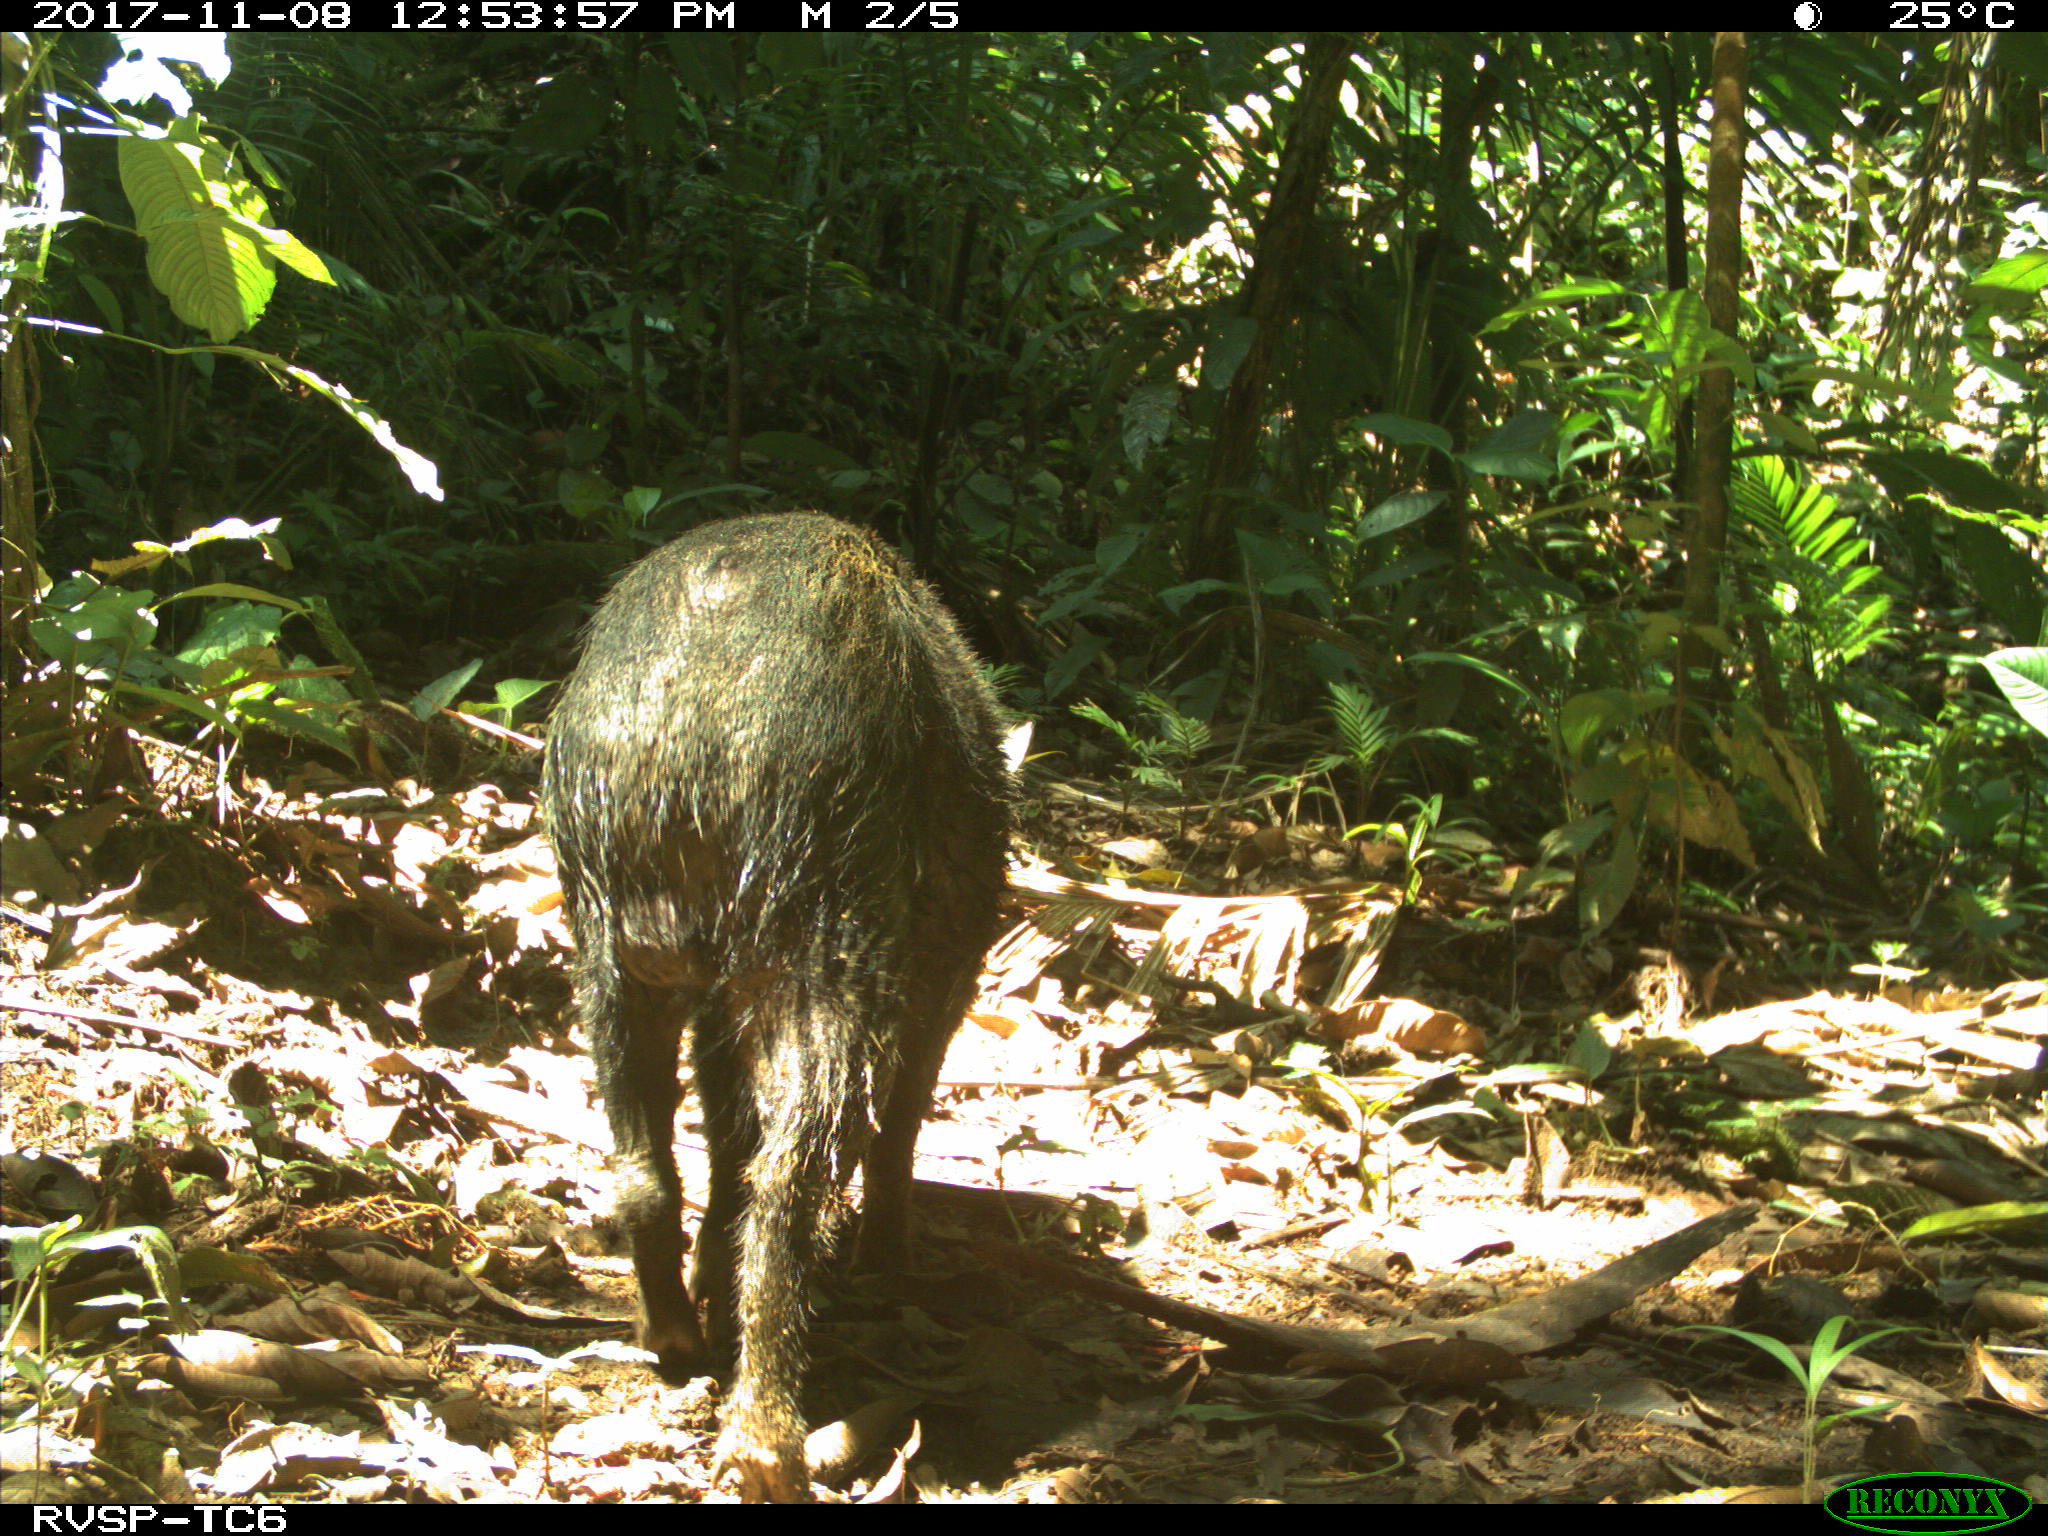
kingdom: Animalia
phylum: Chordata
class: Mammalia
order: Artiodactyla
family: Tayassuidae
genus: Pecari
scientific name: Pecari tajacu
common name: Collared peccary
